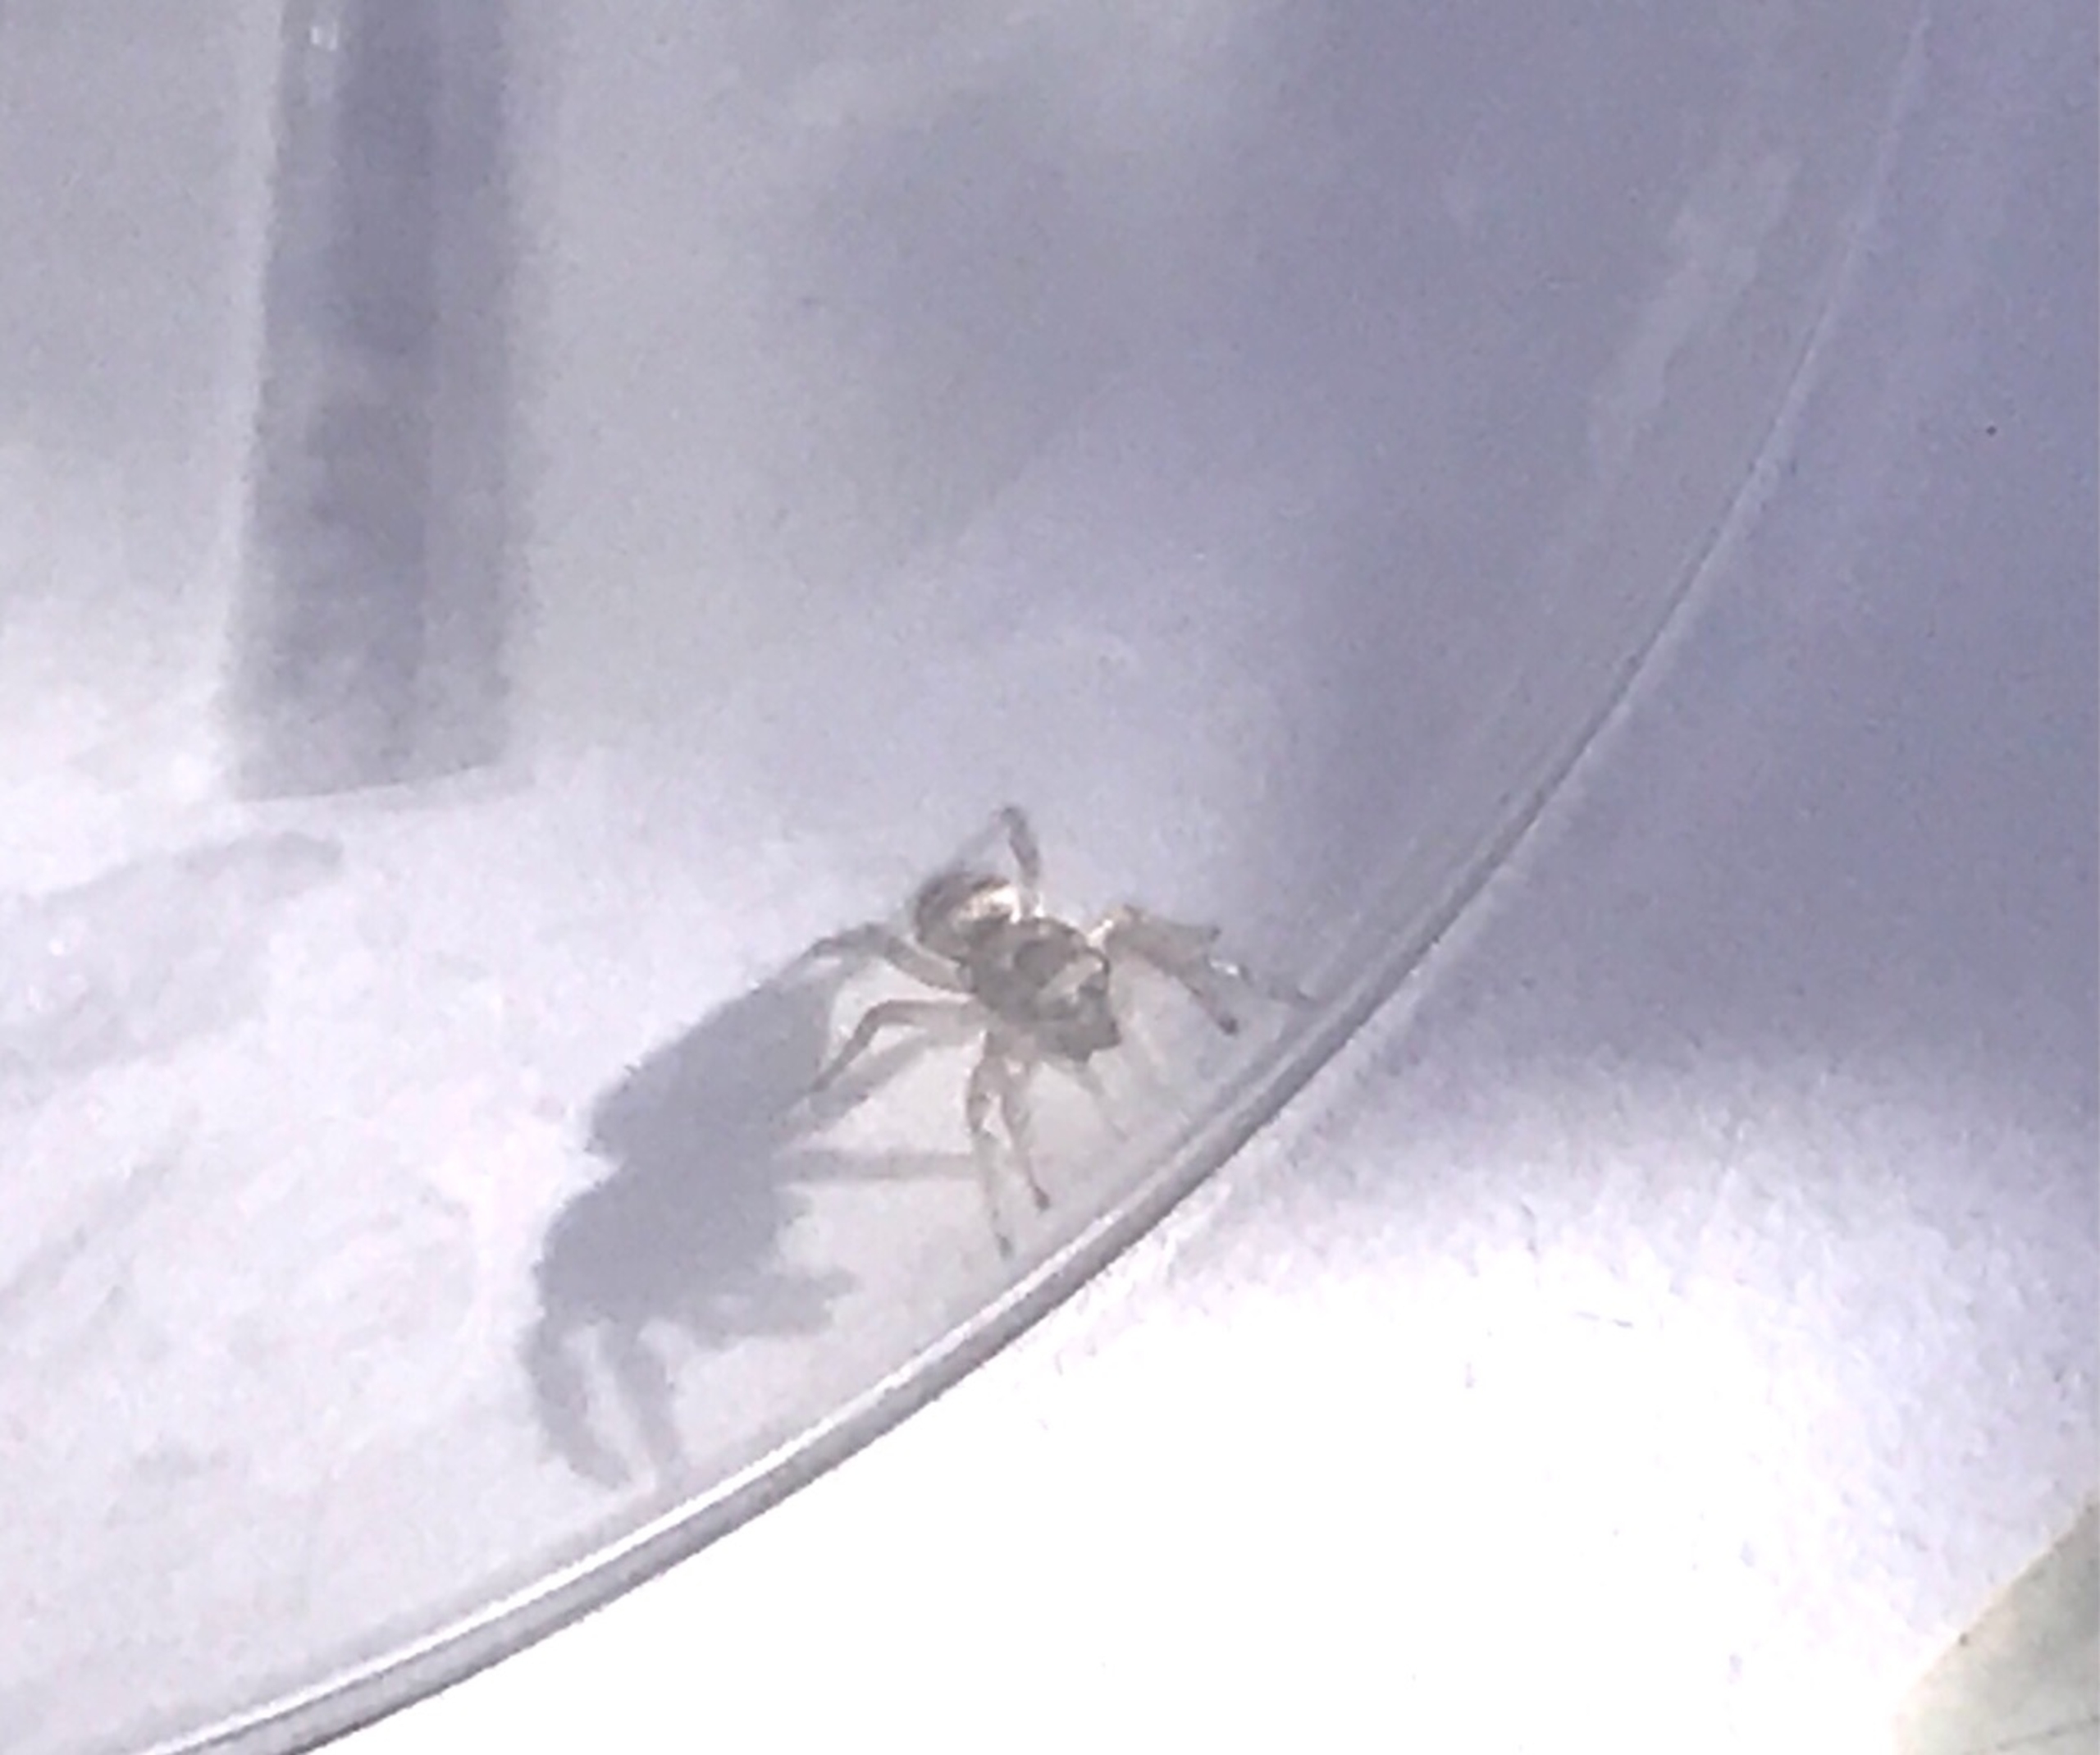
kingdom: Animalia
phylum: Arthropoda
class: Arachnida
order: Araneae
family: Salticidae
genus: Salticus
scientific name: Salticus scenicus
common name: Almindelig zebraedderkop
